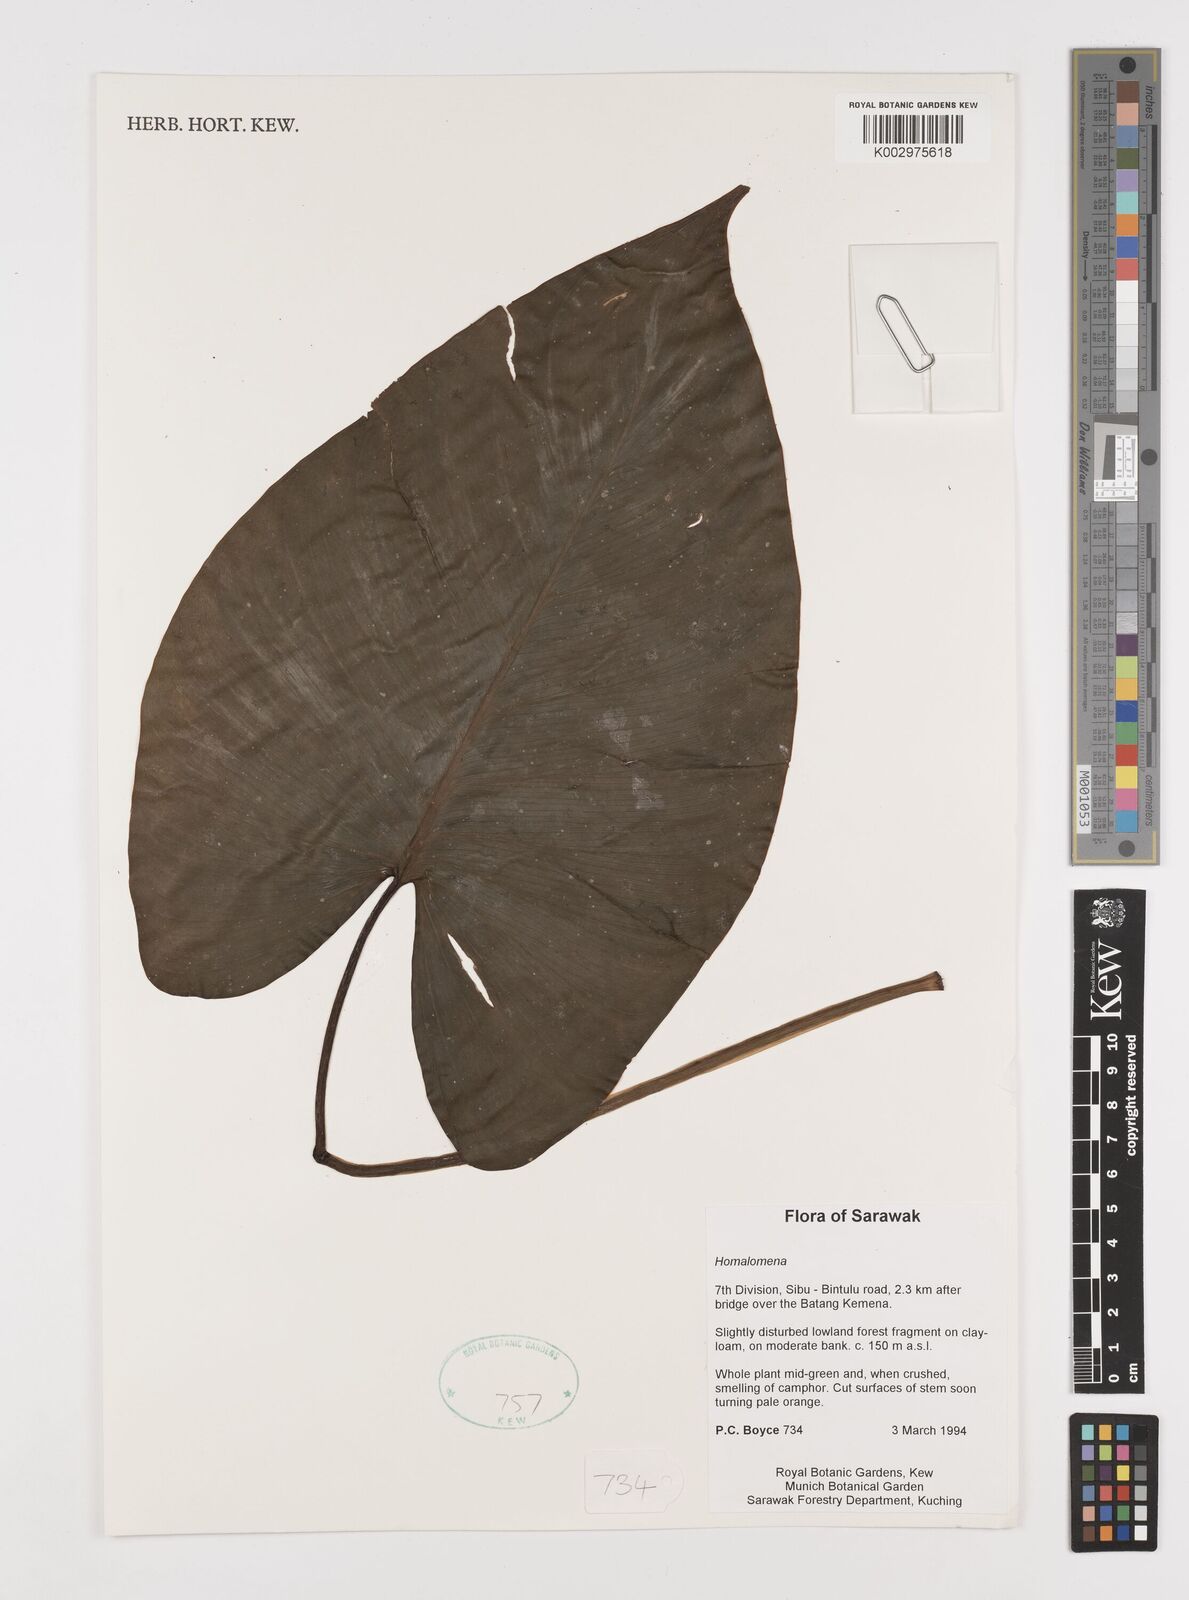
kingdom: Plantae
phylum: Tracheophyta
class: Liliopsida
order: Alismatales
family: Araceae
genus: Homalomena
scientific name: Homalomena
